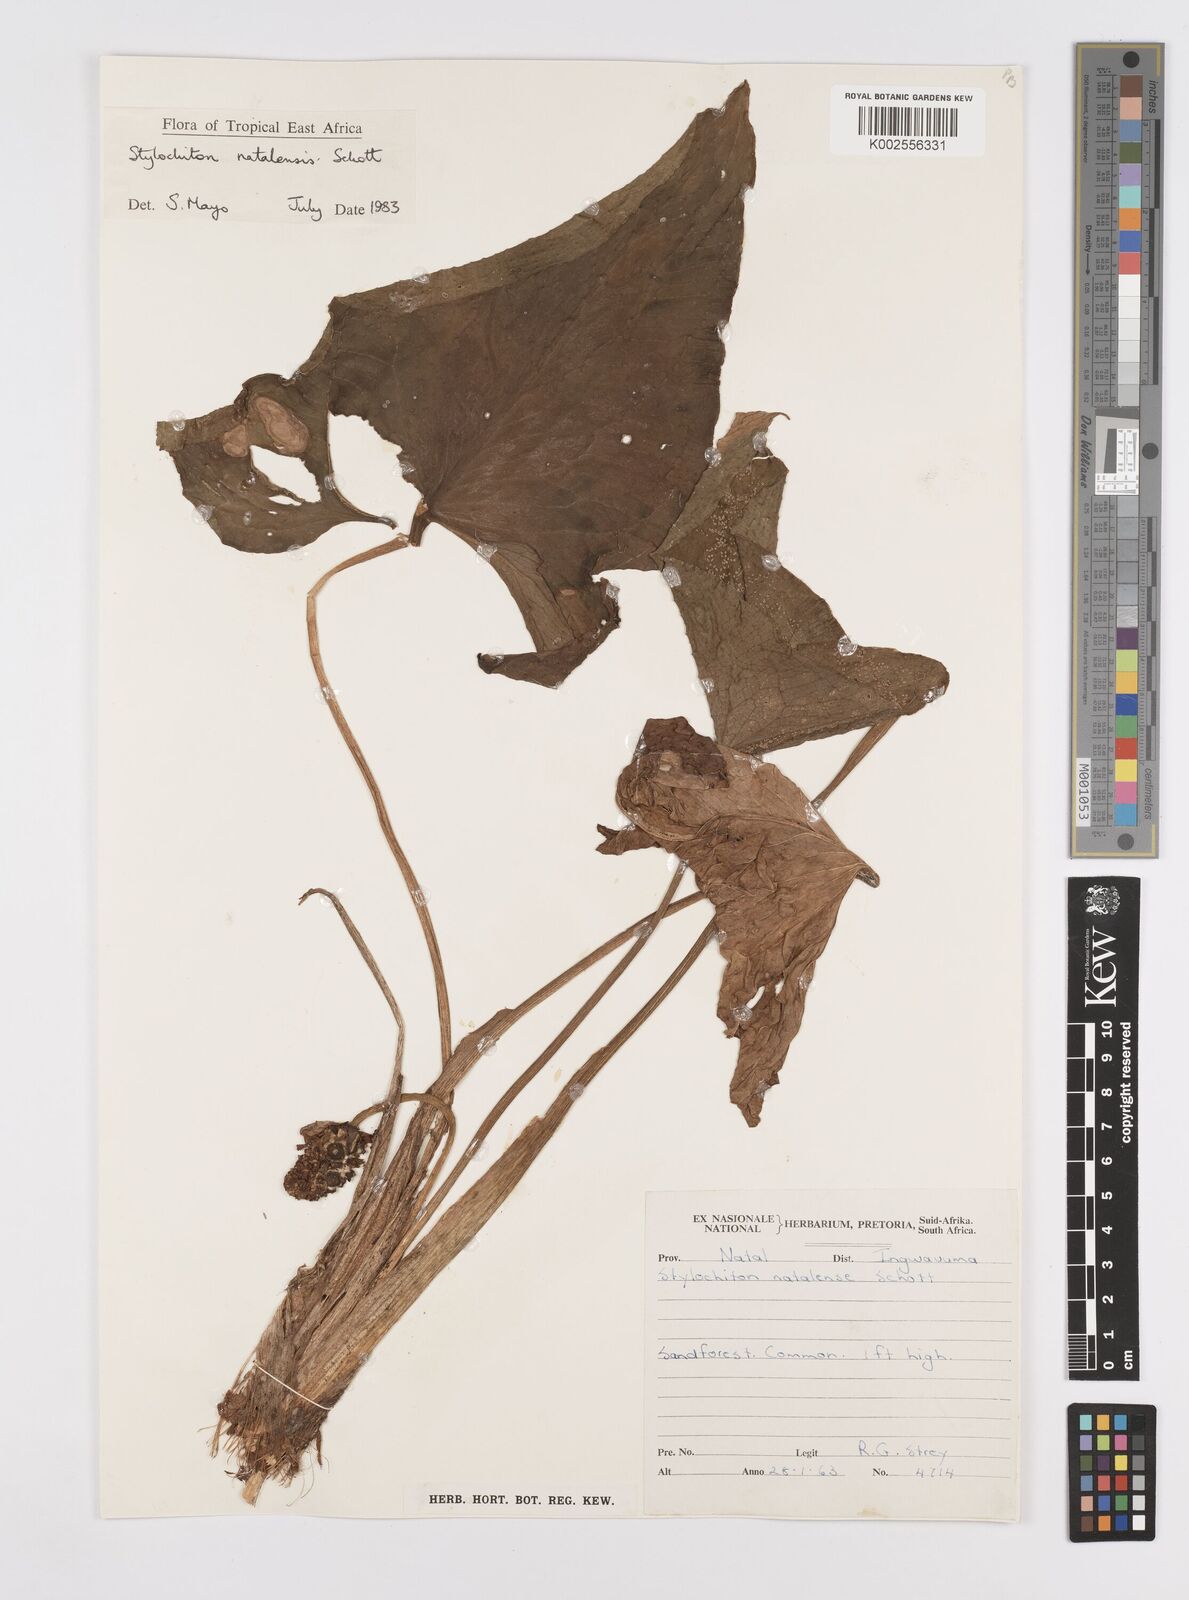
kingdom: Plantae
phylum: Tracheophyta
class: Liliopsida
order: Alismatales
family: Araceae
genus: Stylochaeton
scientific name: Stylochaeton natalense
